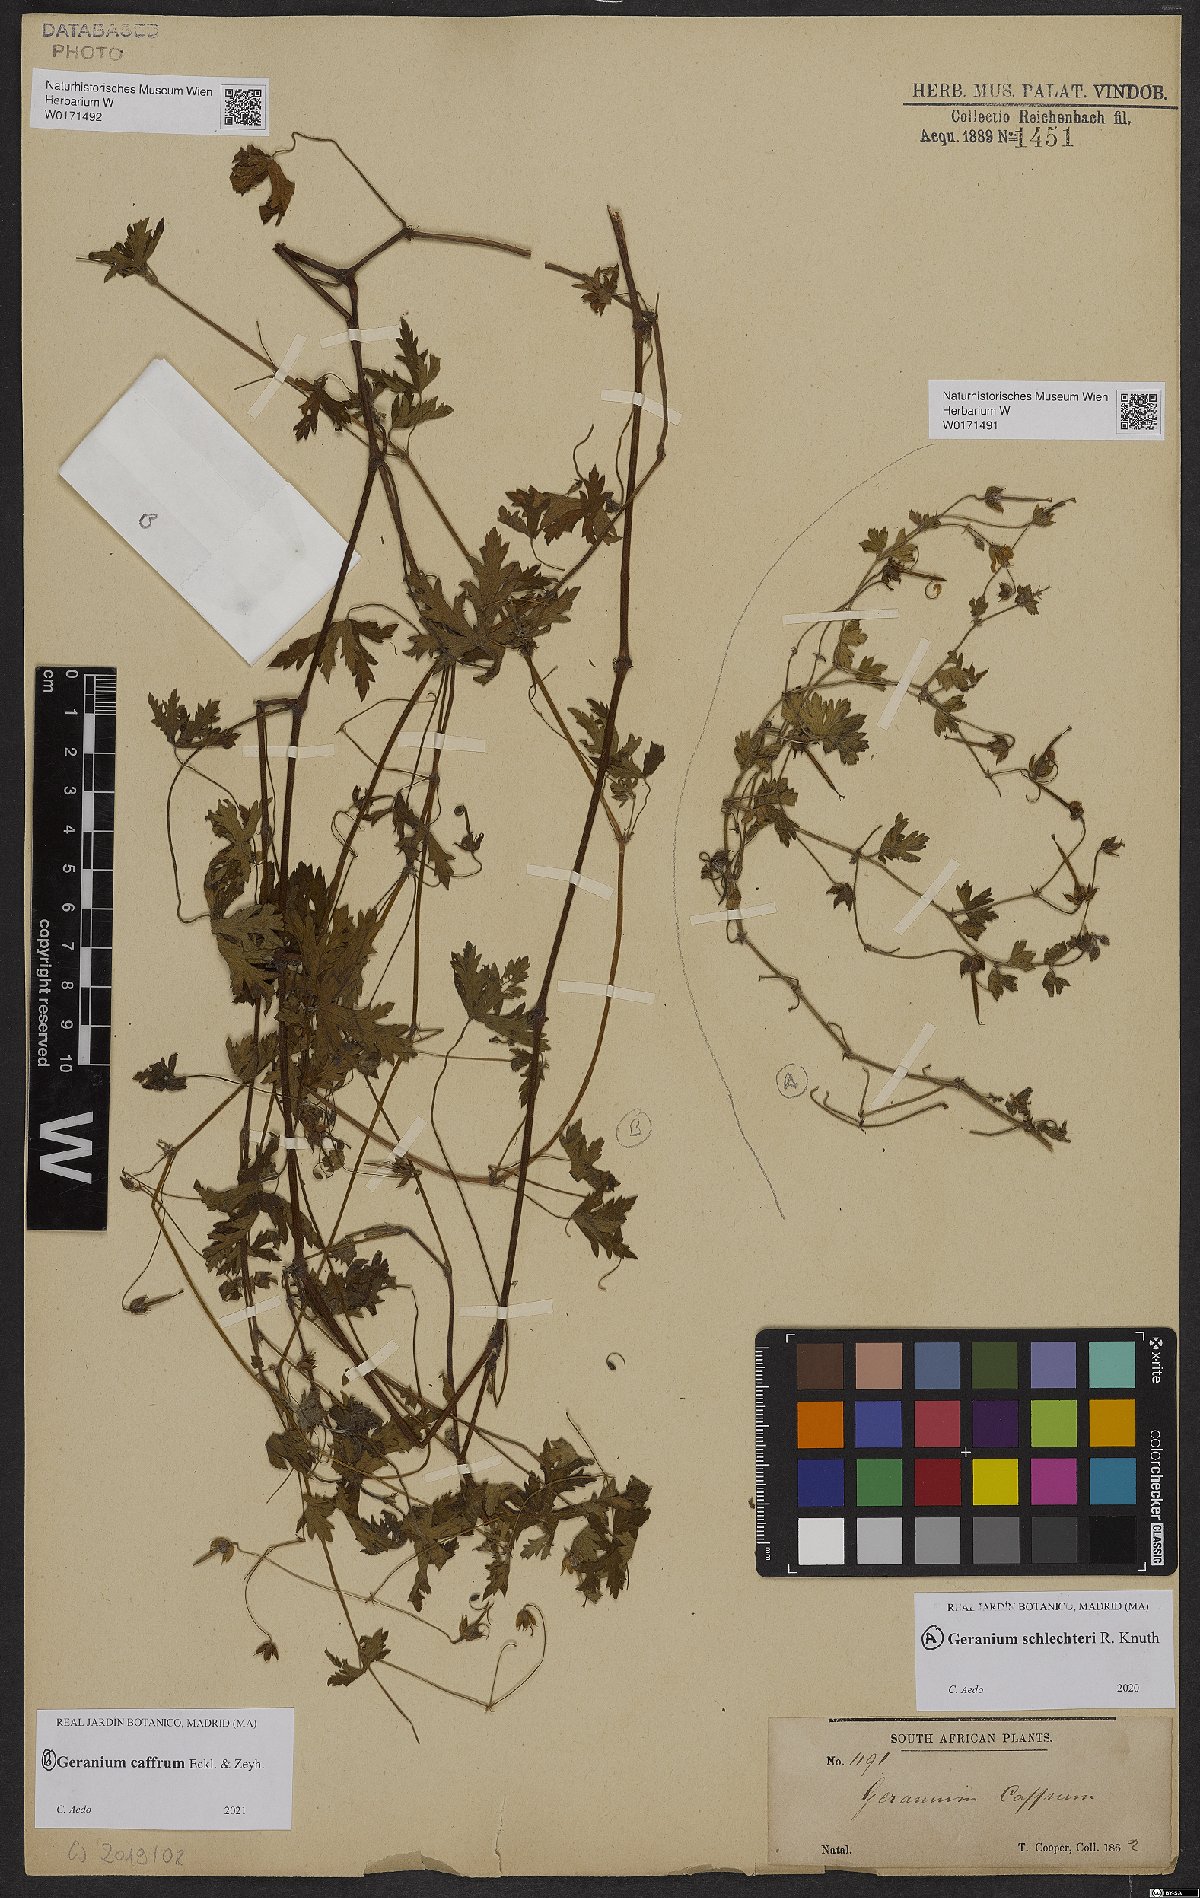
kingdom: Plantae
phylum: Tracheophyta
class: Magnoliopsida
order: Geraniales
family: Geraniaceae
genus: Geranium
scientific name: Geranium caffrum
